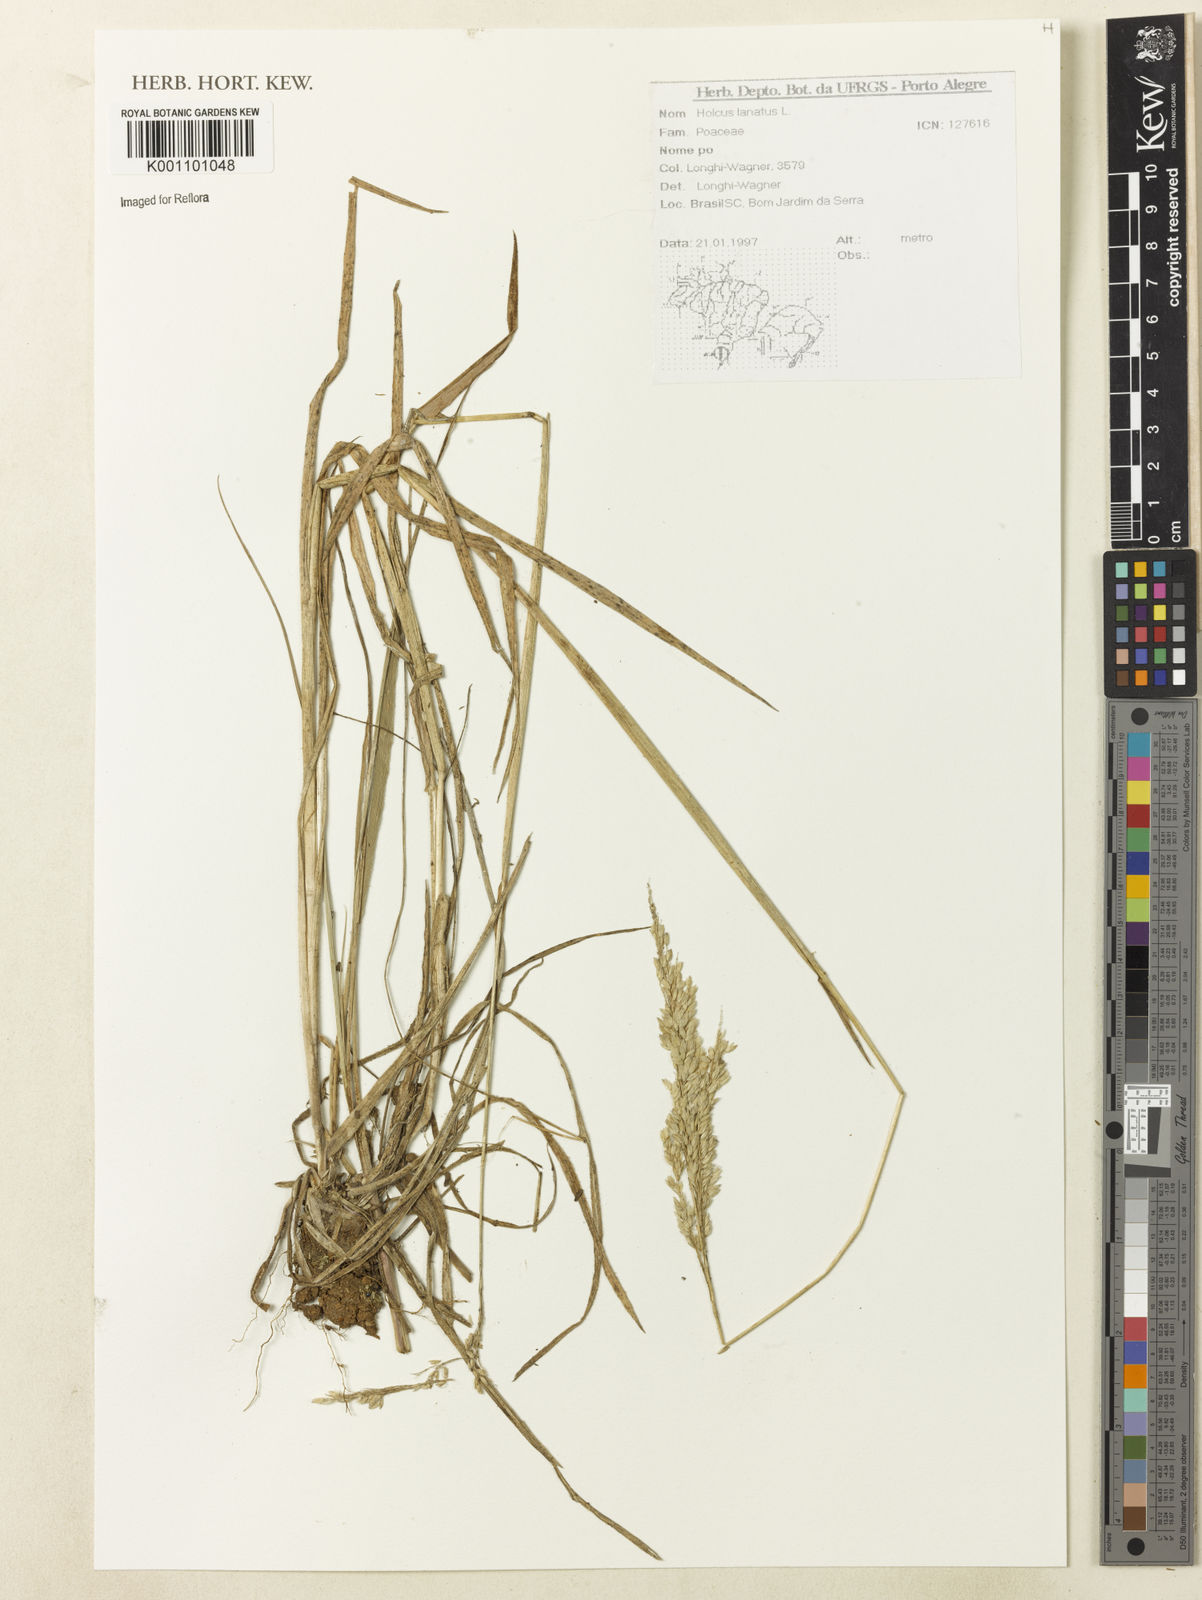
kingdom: Plantae
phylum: Tracheophyta
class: Liliopsida
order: Poales
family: Poaceae
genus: Holcus
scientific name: Holcus lanatus
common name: Yorkshire-fog
